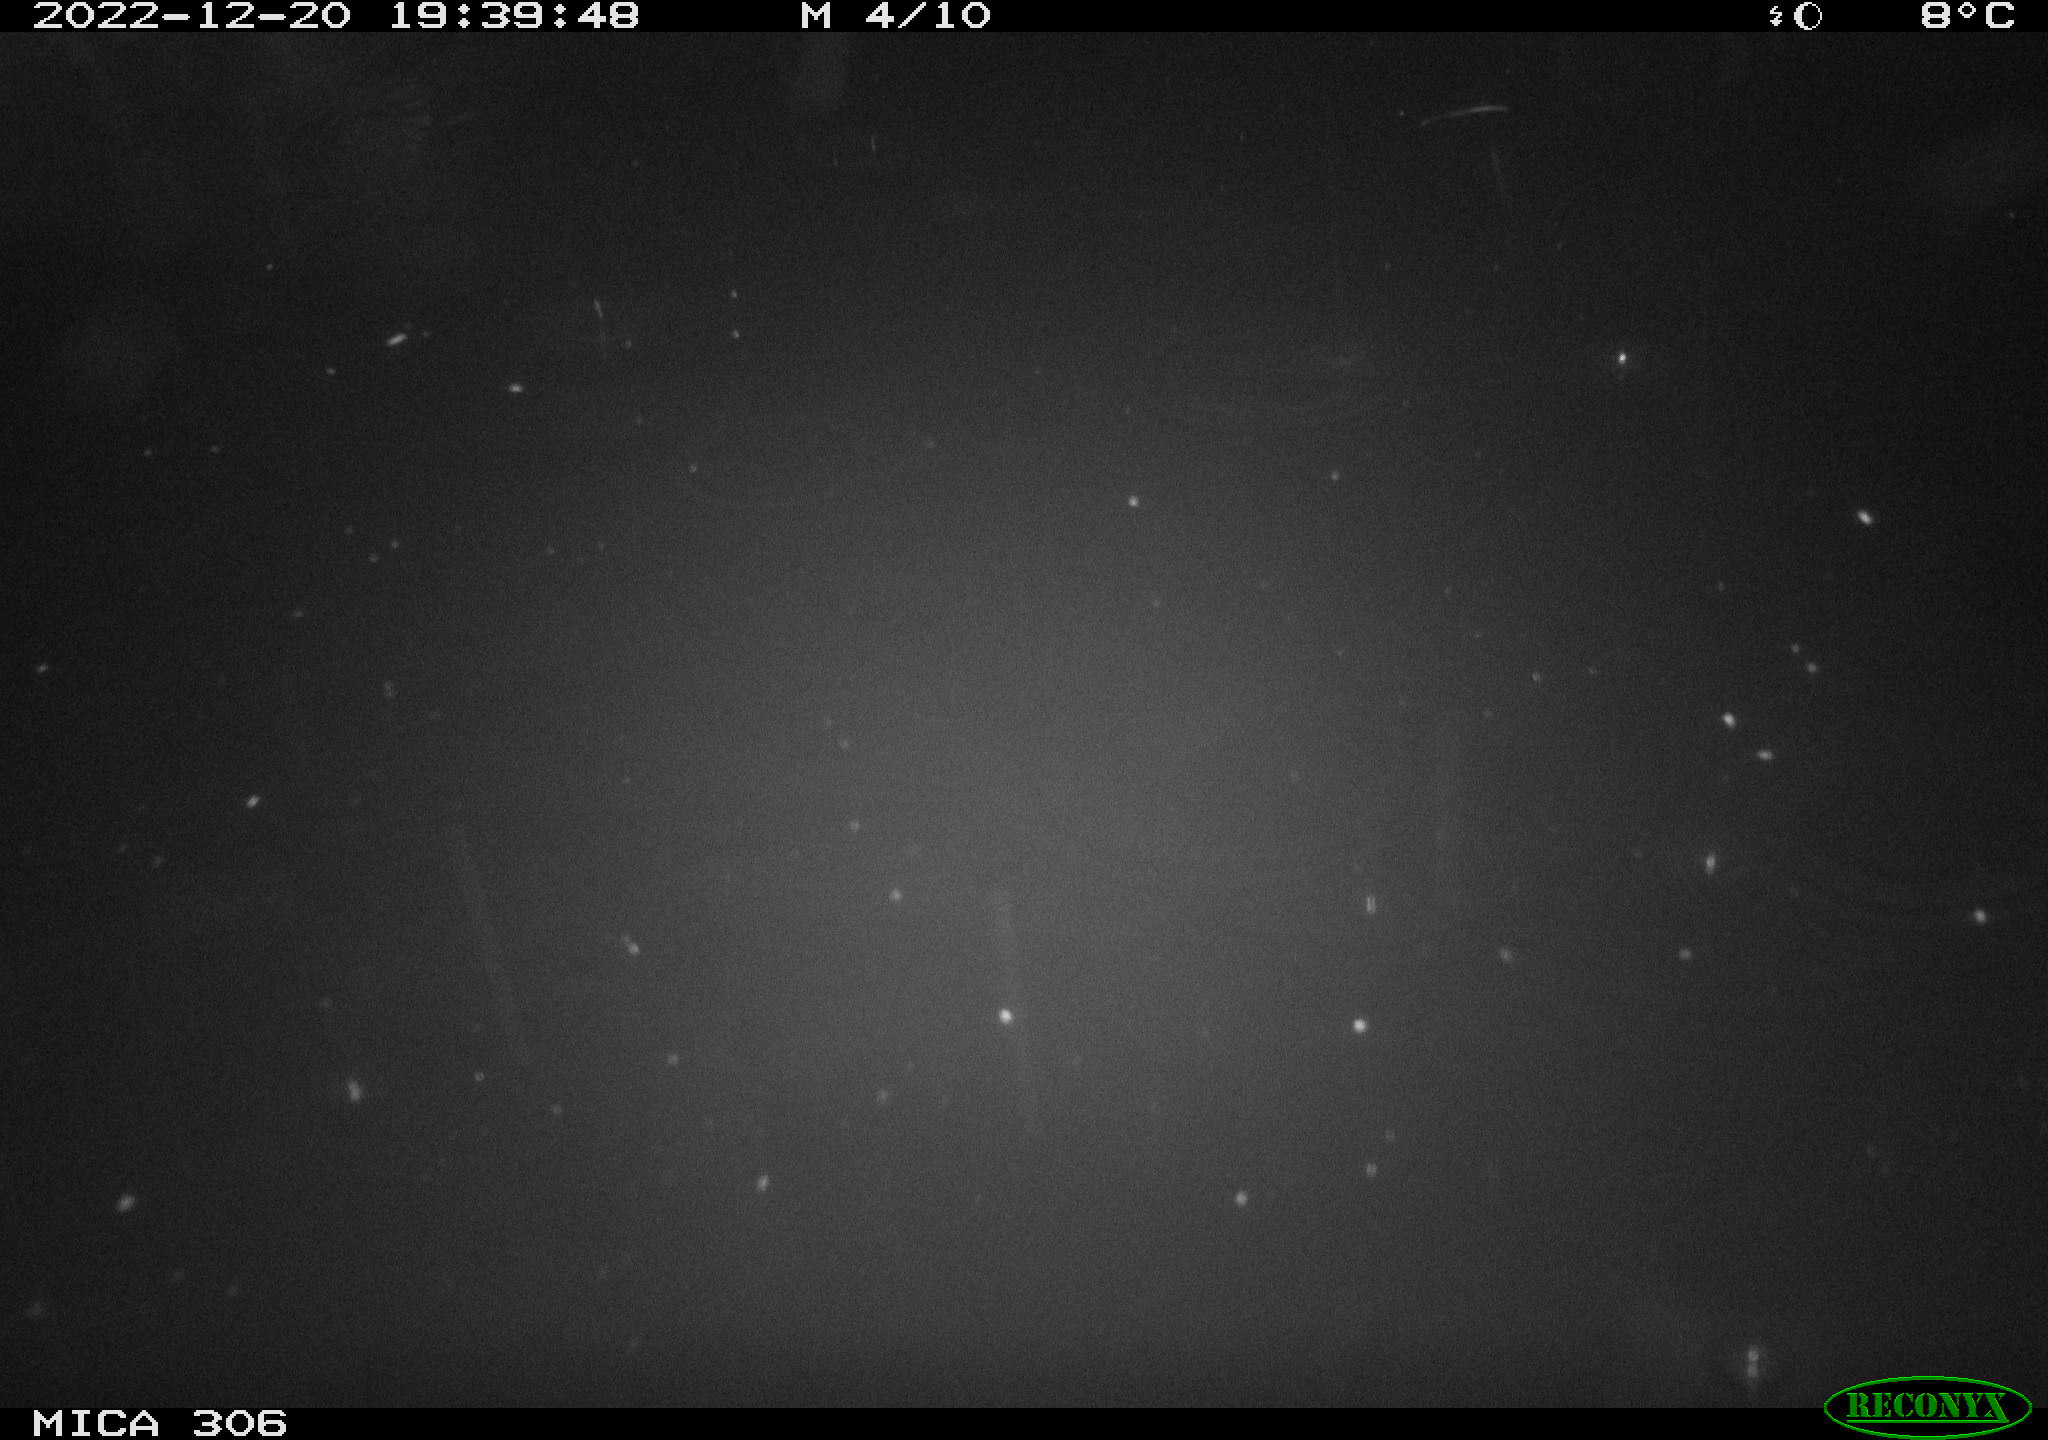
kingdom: Animalia
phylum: Chordata
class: Mammalia
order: Rodentia
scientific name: Rodentia
